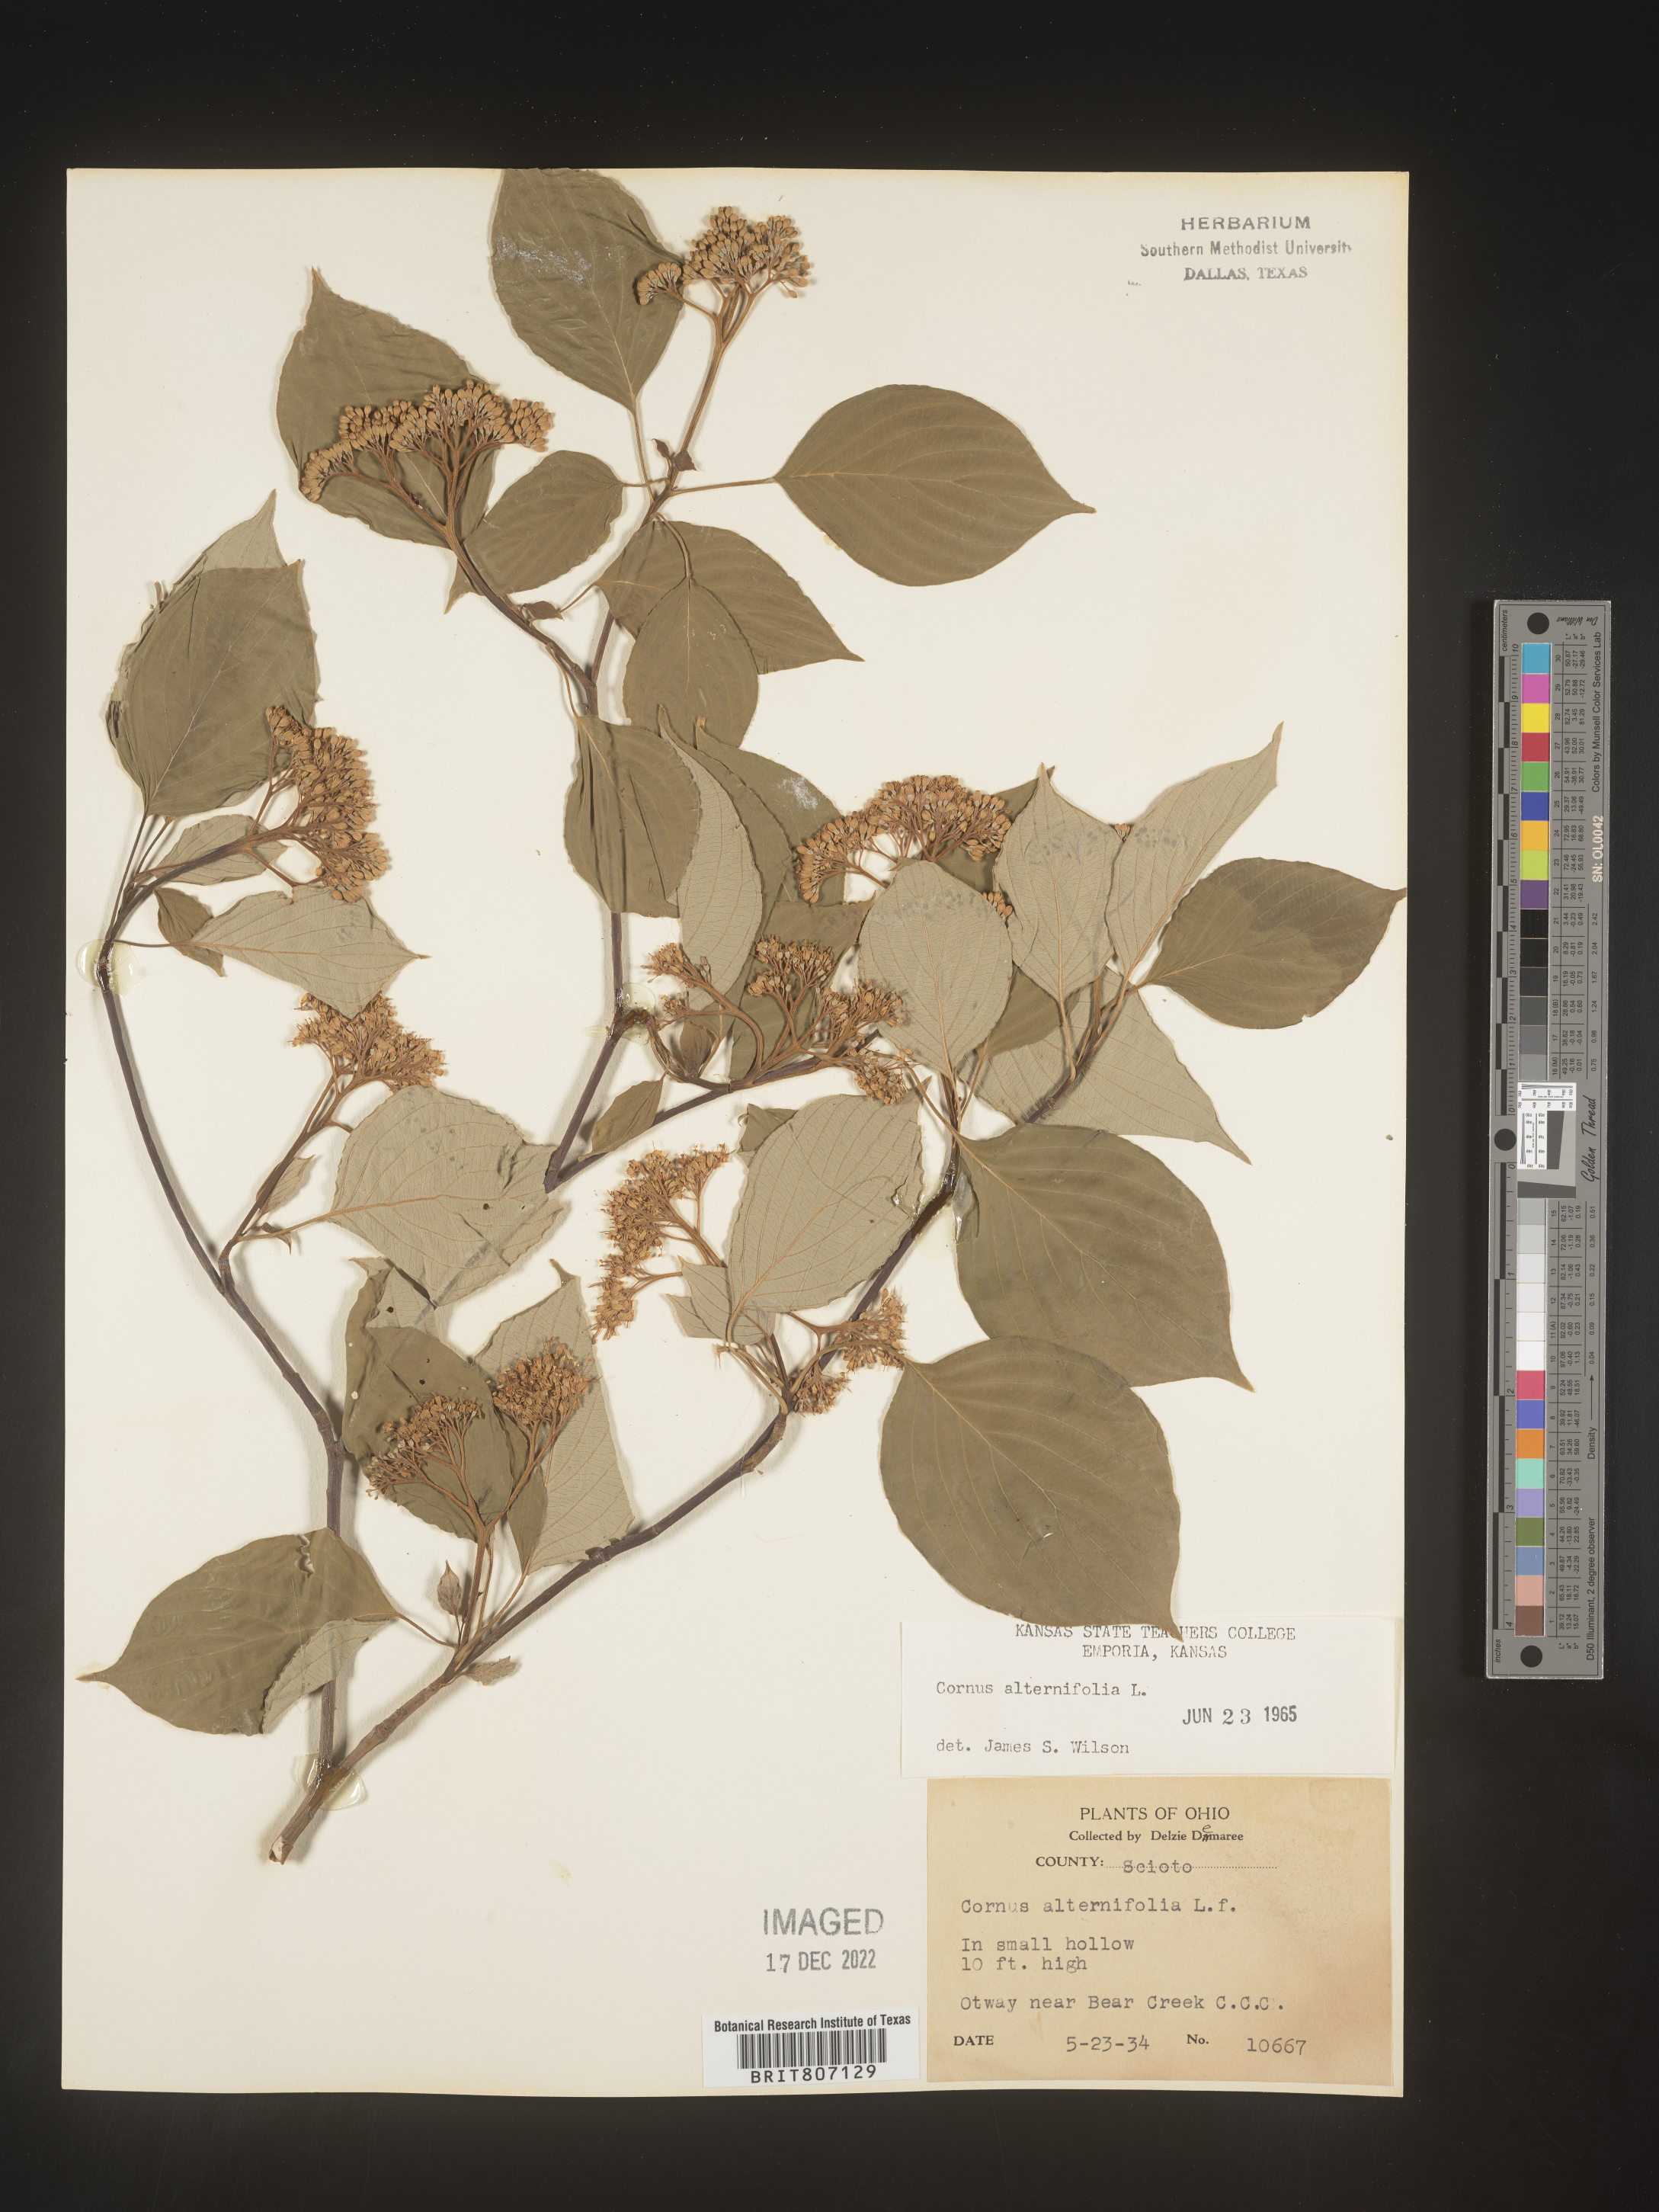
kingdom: Plantae
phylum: Tracheophyta
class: Magnoliopsida
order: Cornales
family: Cornaceae
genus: Cornus
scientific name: Cornus alternifolia
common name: Pagoda dogwood
